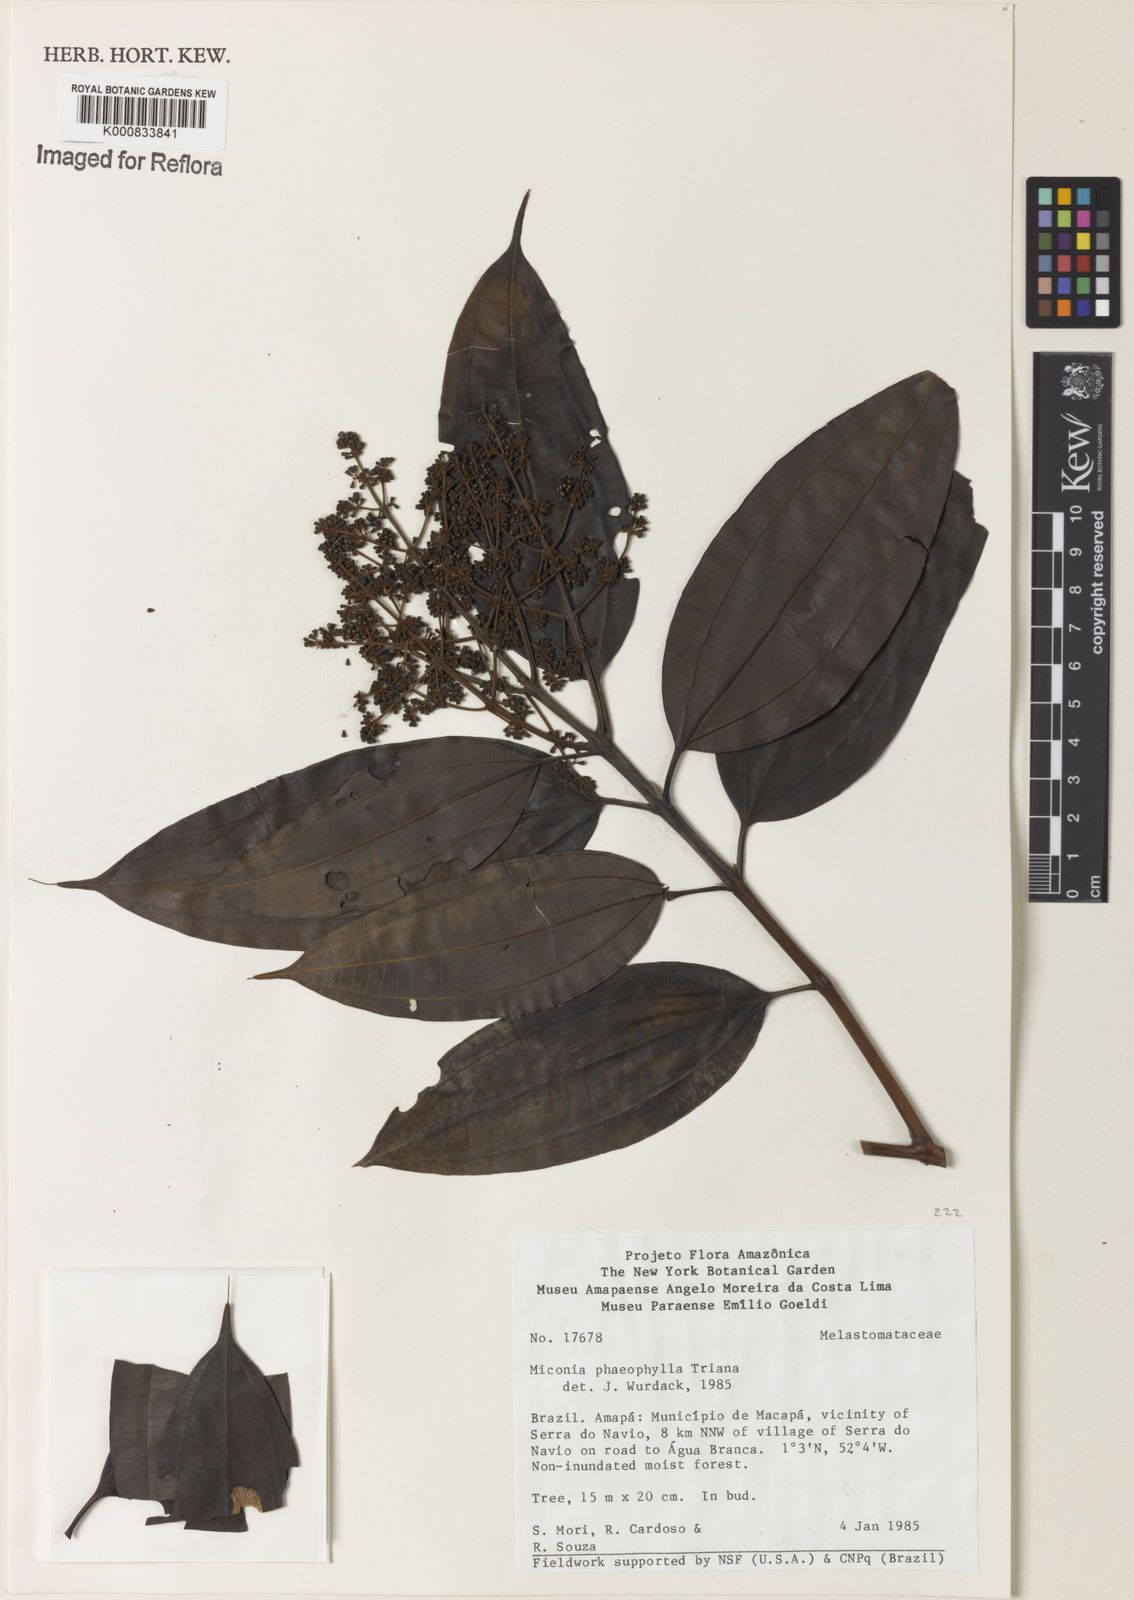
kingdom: Plantae
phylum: Tracheophyta
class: Magnoliopsida
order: Myrtales
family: Melastomataceae
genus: Miconia
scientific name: Miconia phaeophylla
